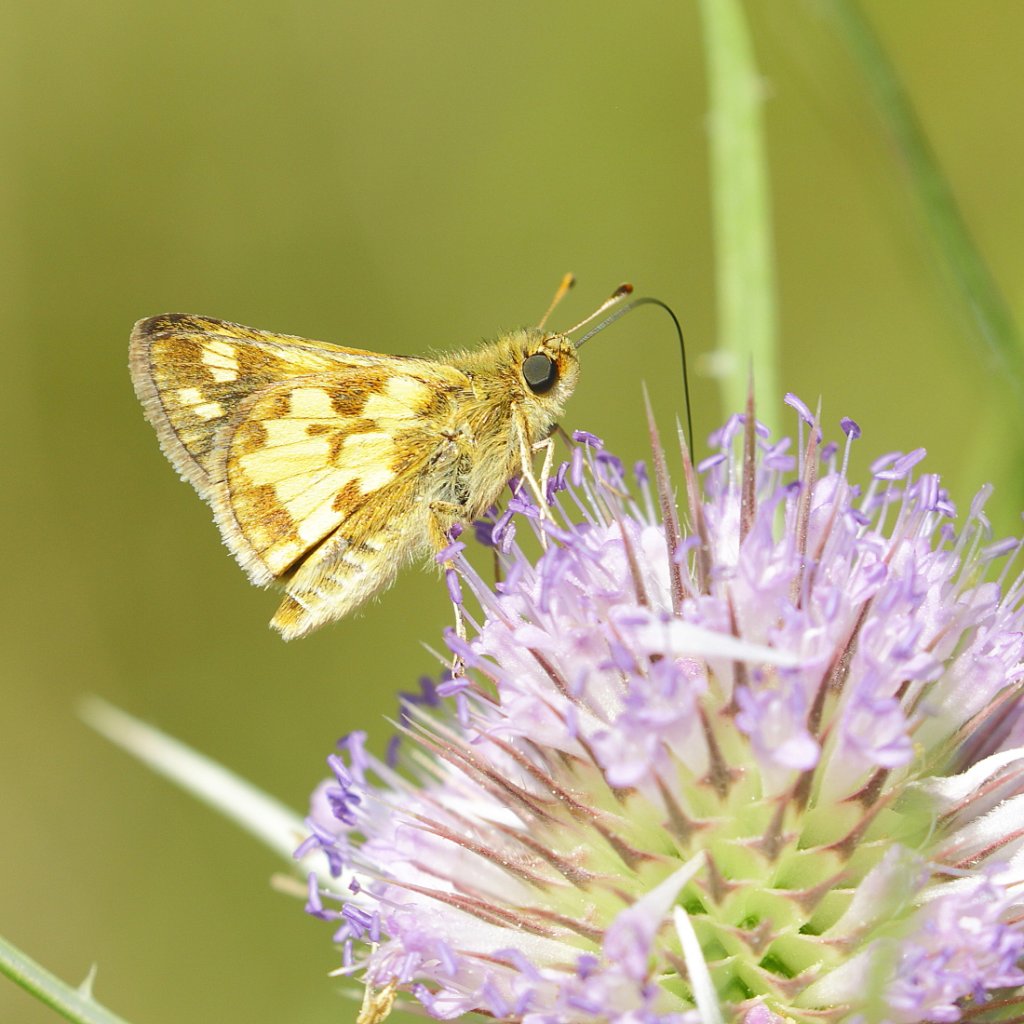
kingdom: Animalia
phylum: Arthropoda
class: Insecta
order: Lepidoptera
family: Hesperiidae
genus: Polites
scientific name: Polites coras
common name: Peck's Skipper
